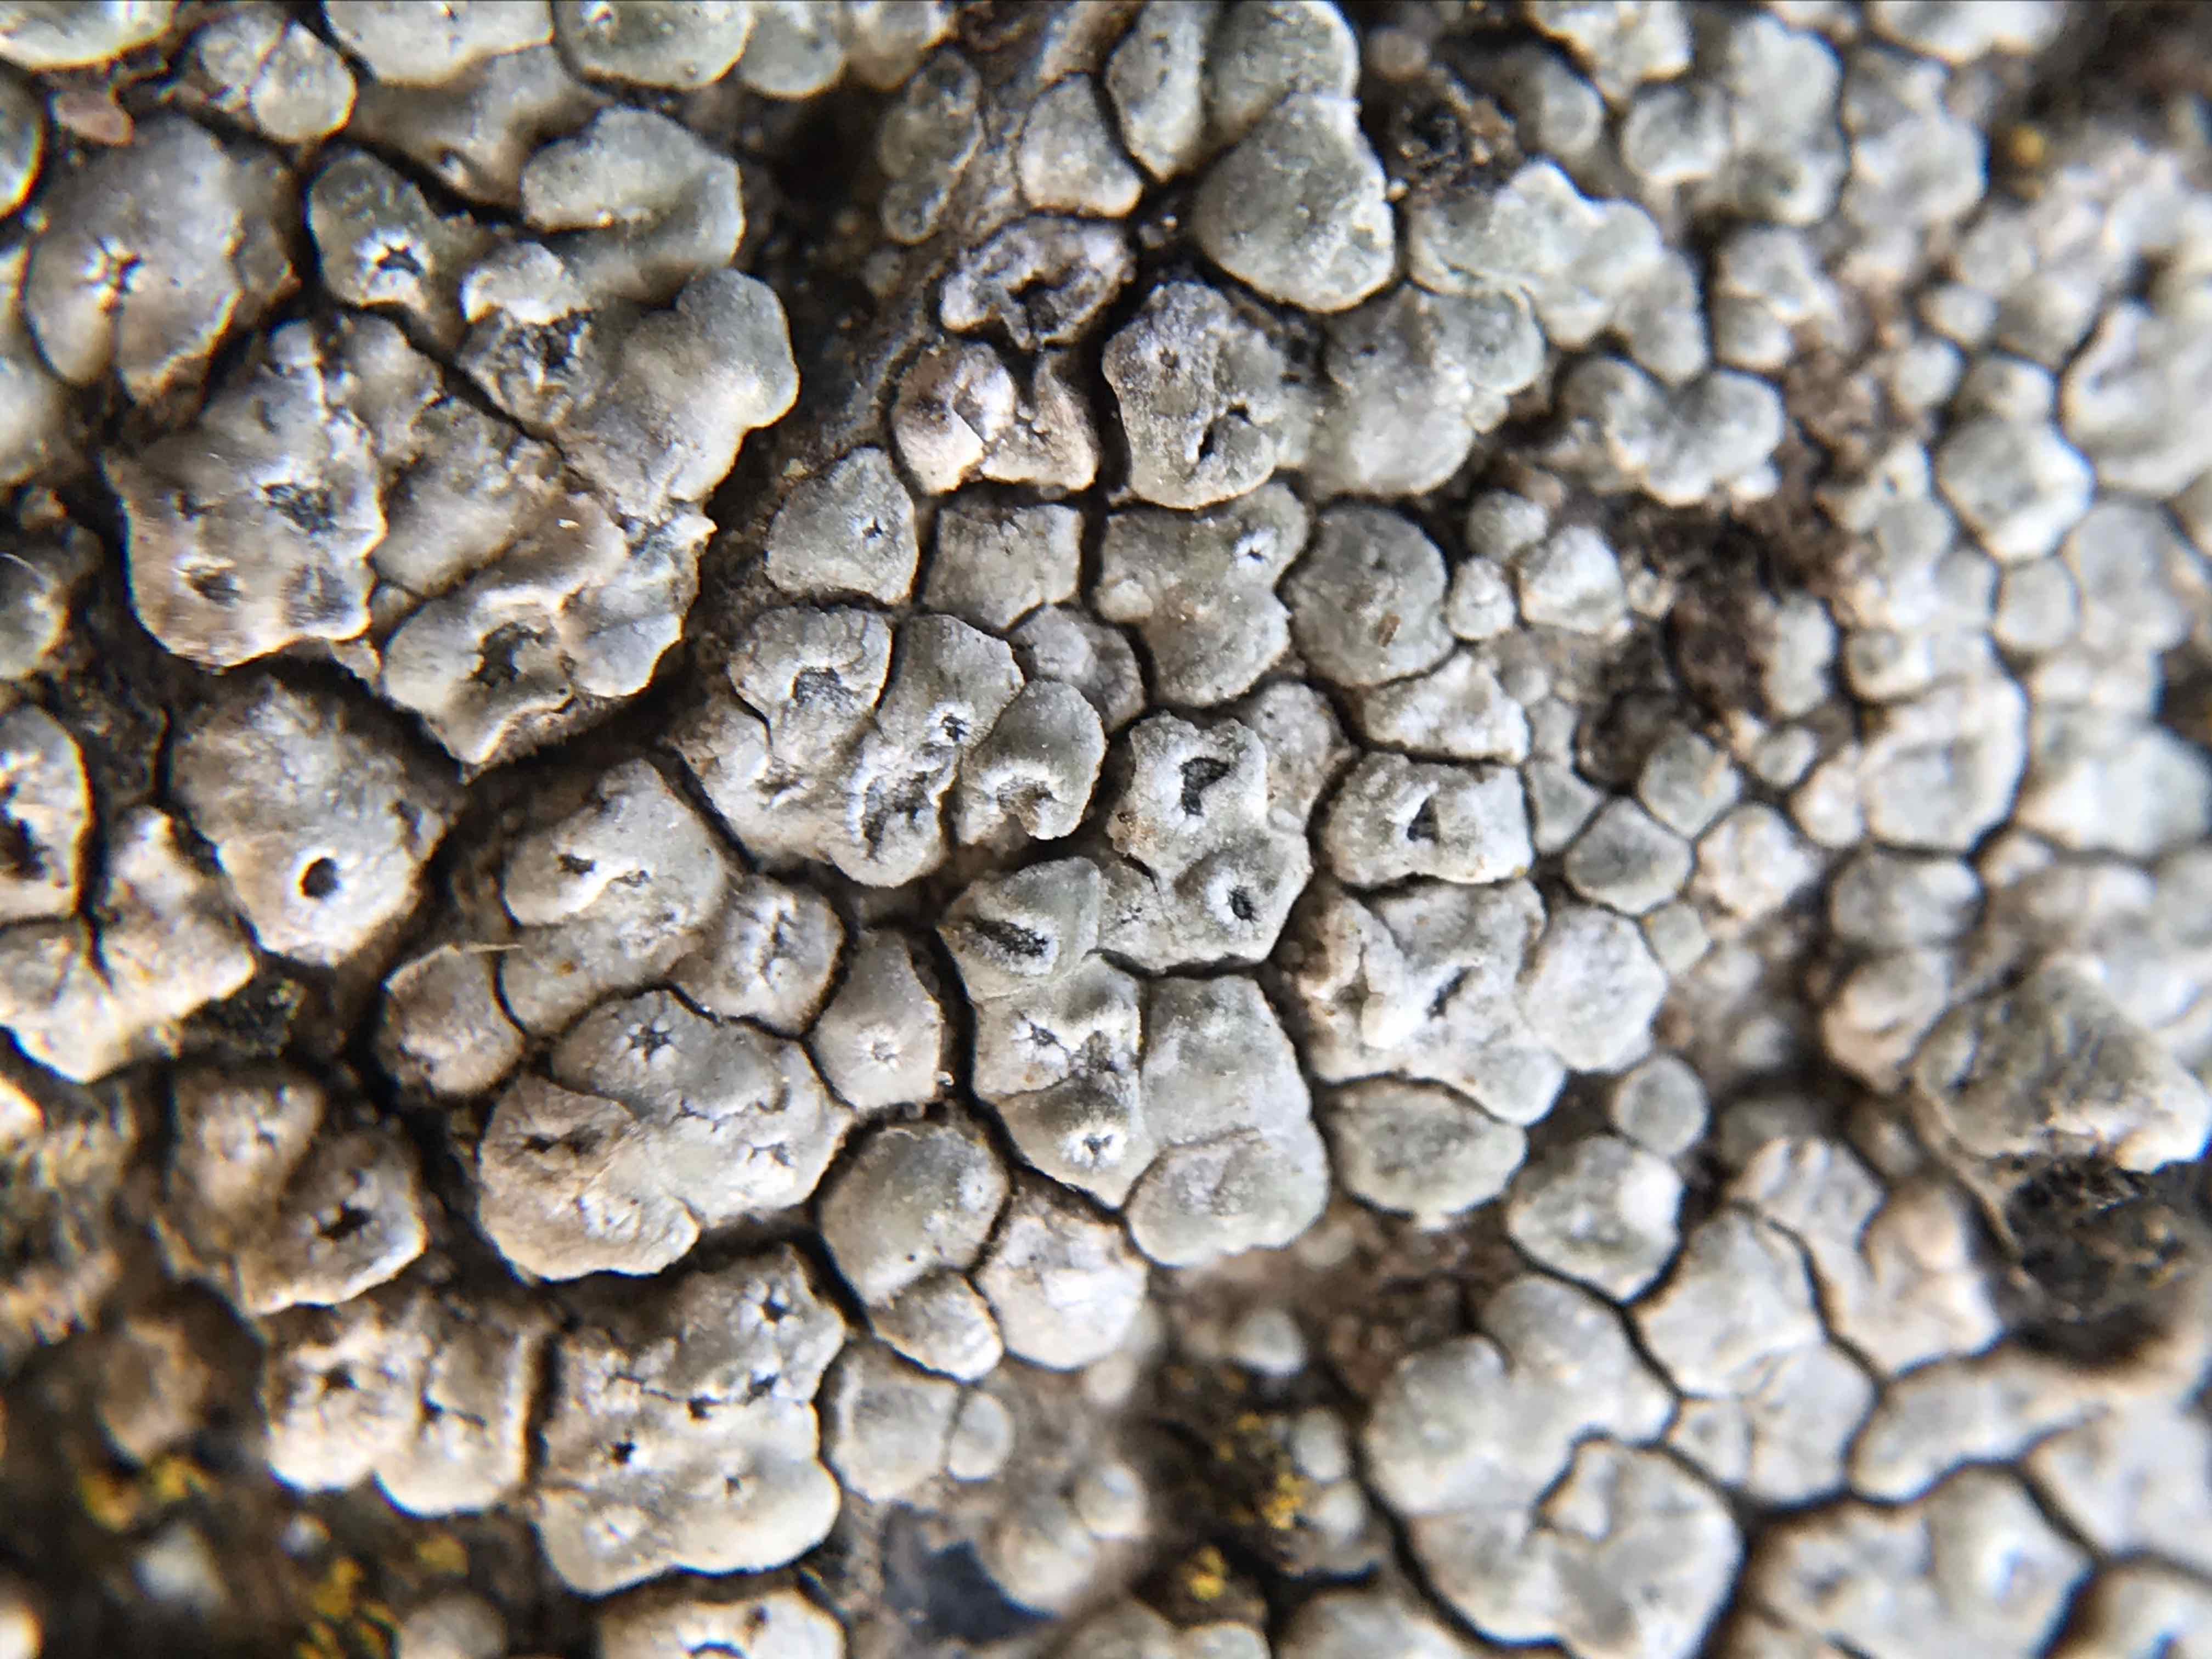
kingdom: Fungi
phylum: Ascomycota
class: Lecanoromycetes
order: Pertusariales
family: Megasporaceae
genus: Circinaria
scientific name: Circinaria contorta
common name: indviklet hulskivelav
